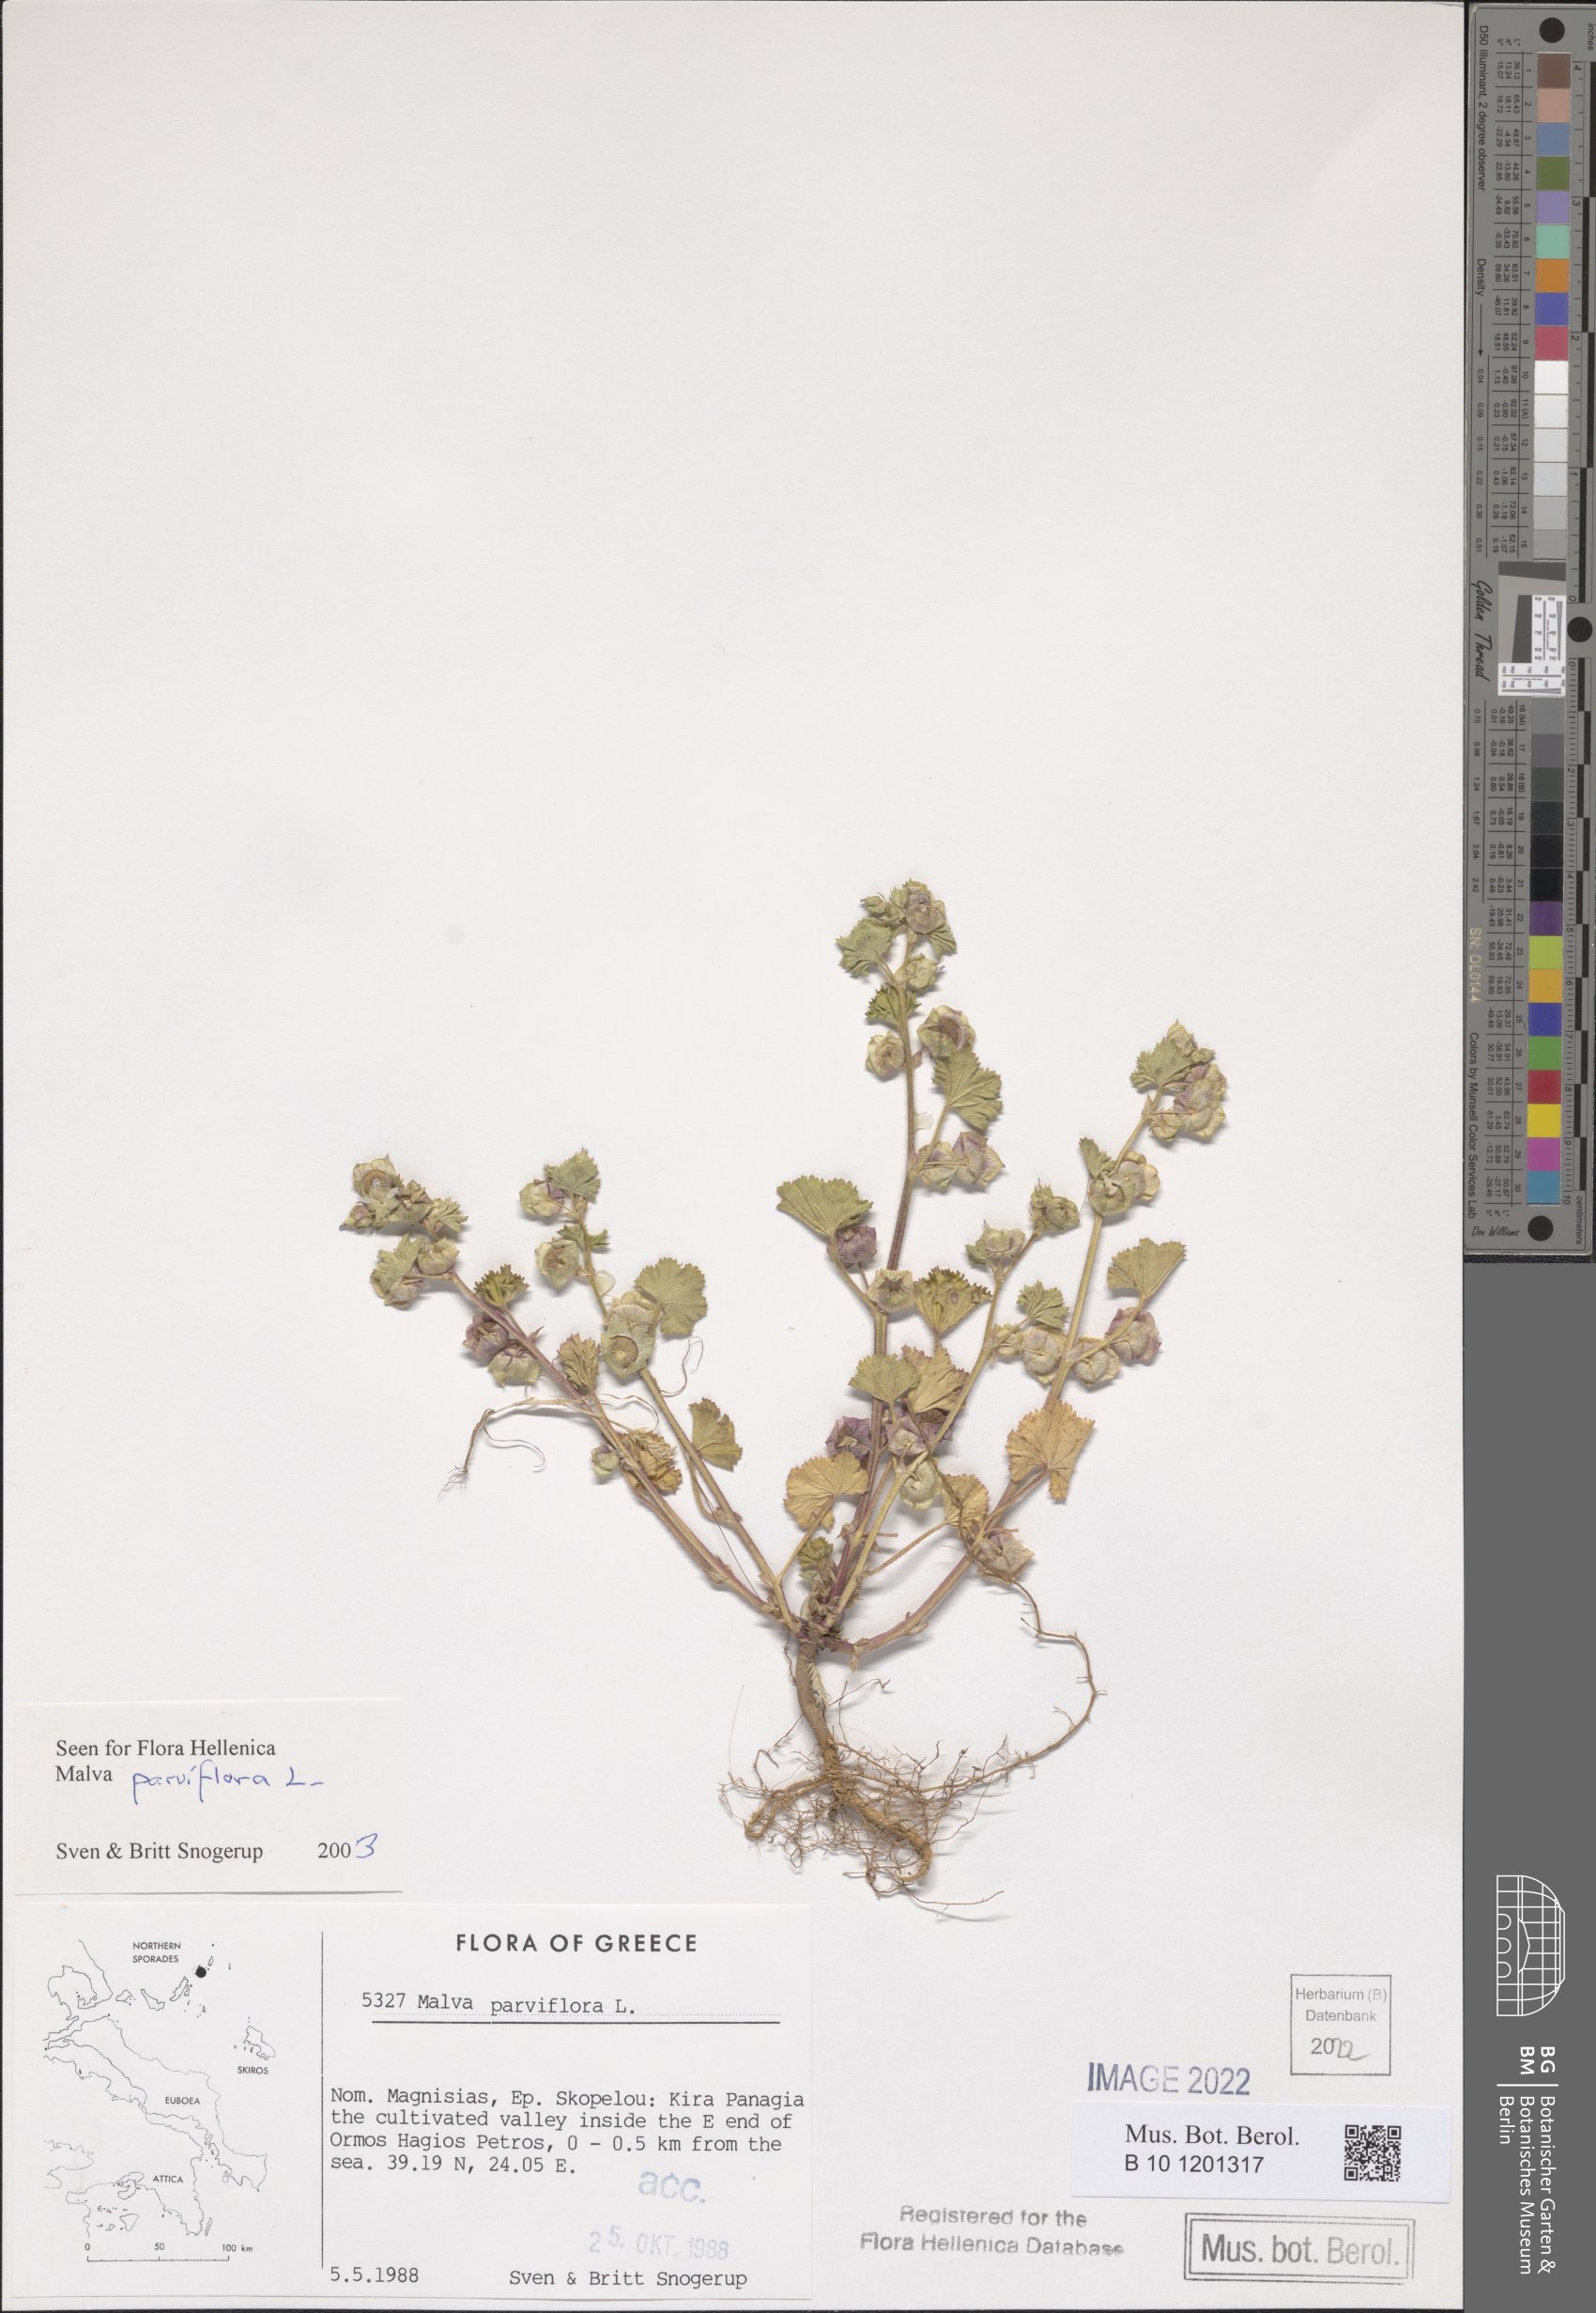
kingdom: Plantae
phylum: Tracheophyta
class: Magnoliopsida
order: Malvales
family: Malvaceae
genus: Malva
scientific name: Malva parviflora
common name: Least mallow
